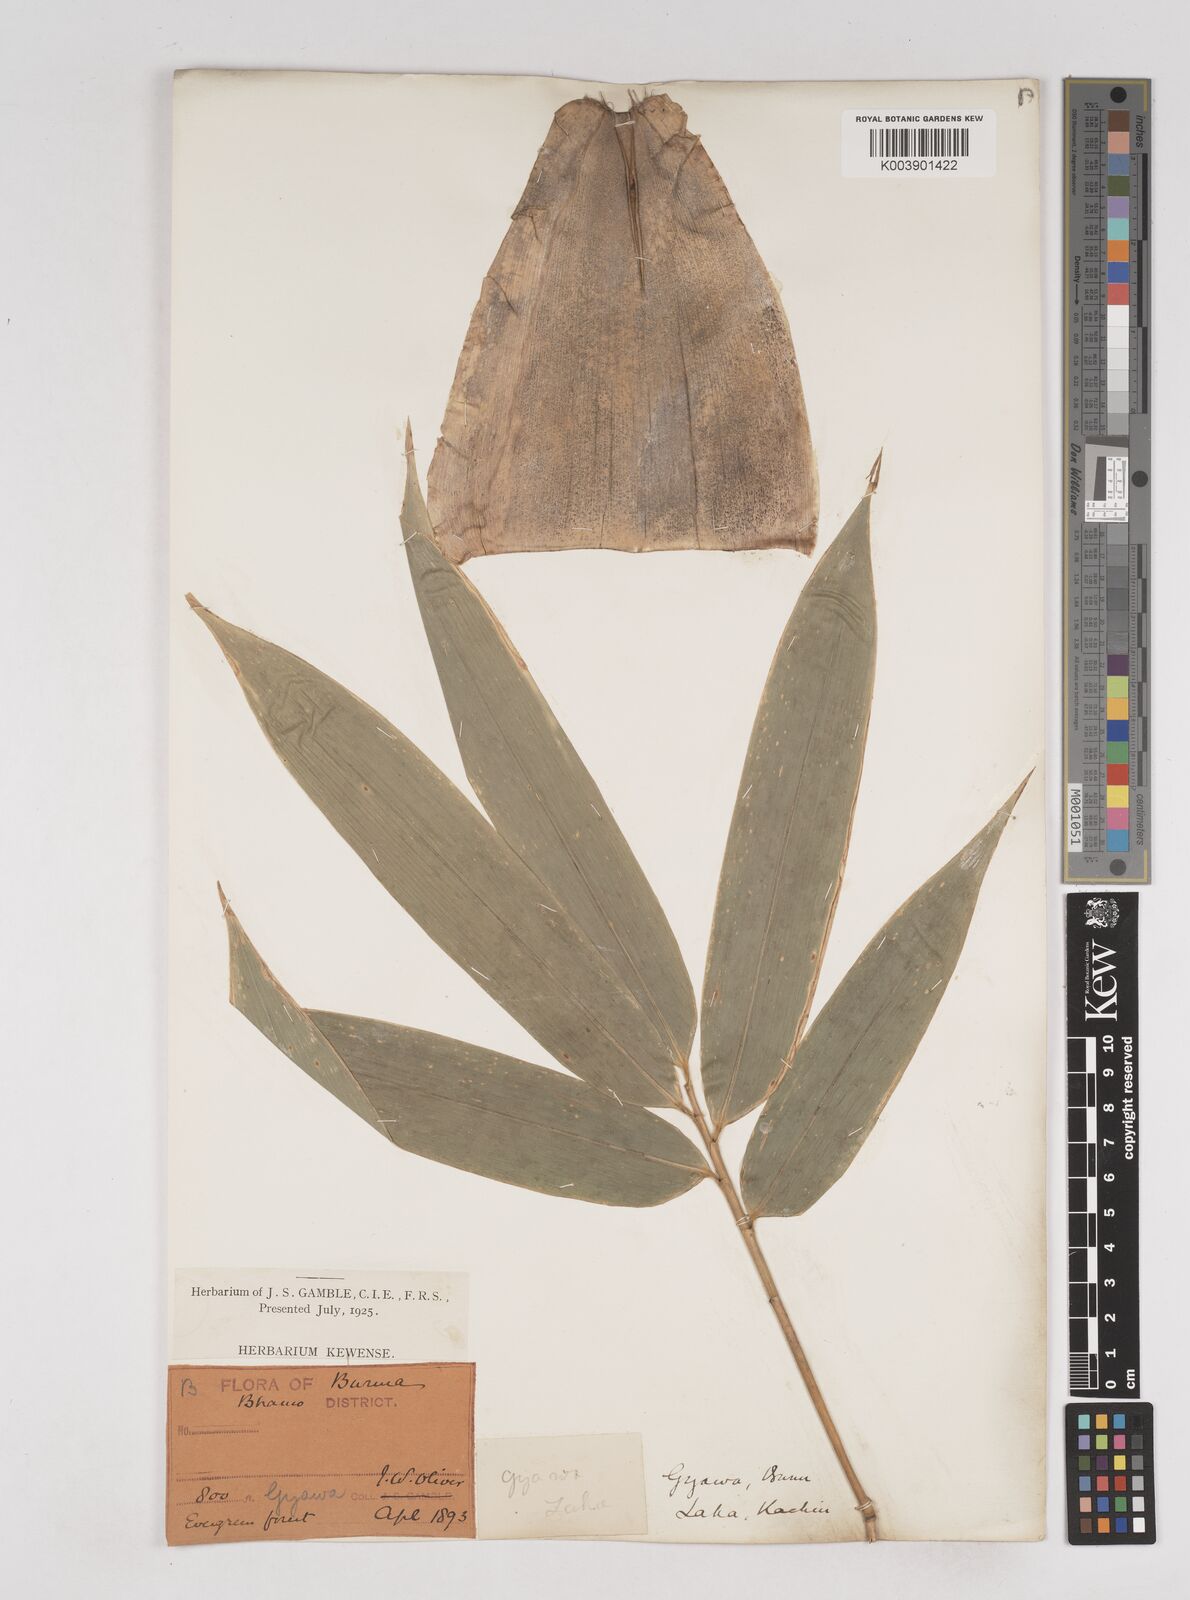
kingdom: Plantae
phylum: Tracheophyta
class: Liliopsida
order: Poales
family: Poaceae
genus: Schizostachyum
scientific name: Schizostachyum tavoyanum
